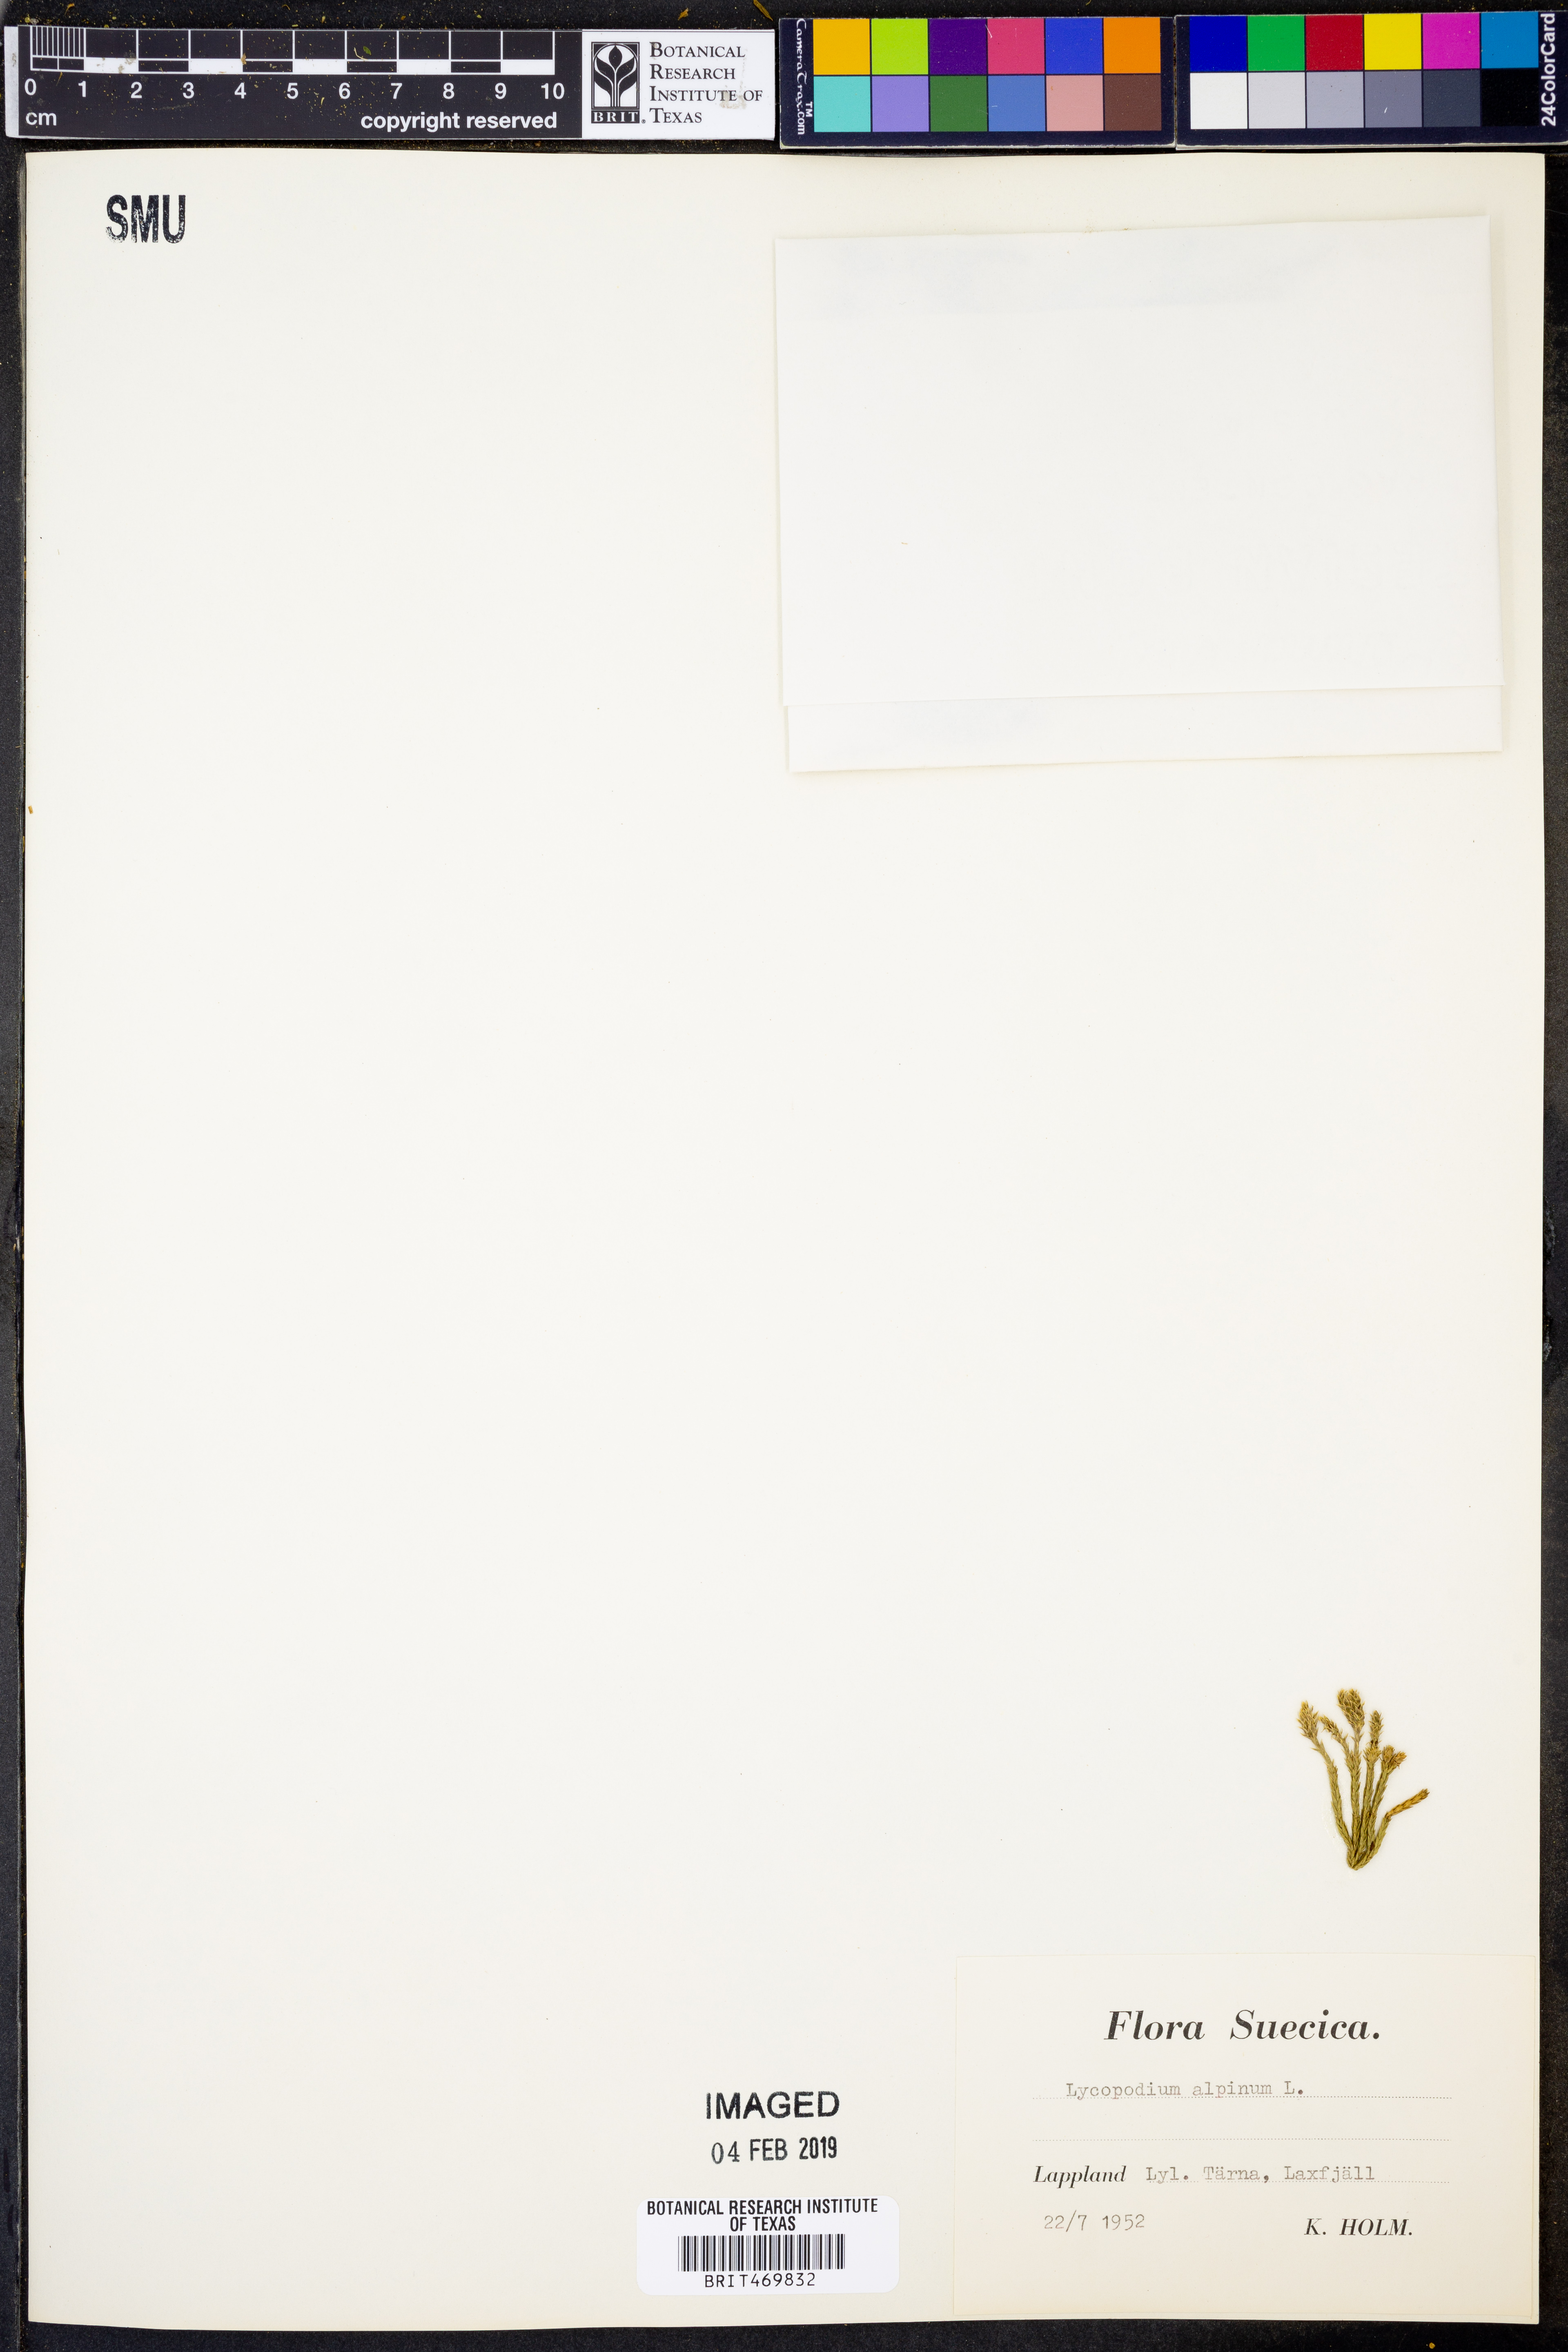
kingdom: Plantae
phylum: Tracheophyta
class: Lycopodiopsida
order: Lycopodiales
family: Lycopodiaceae
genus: Diphasiastrum
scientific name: Diphasiastrum alpinum
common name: Alpine clubmoss
